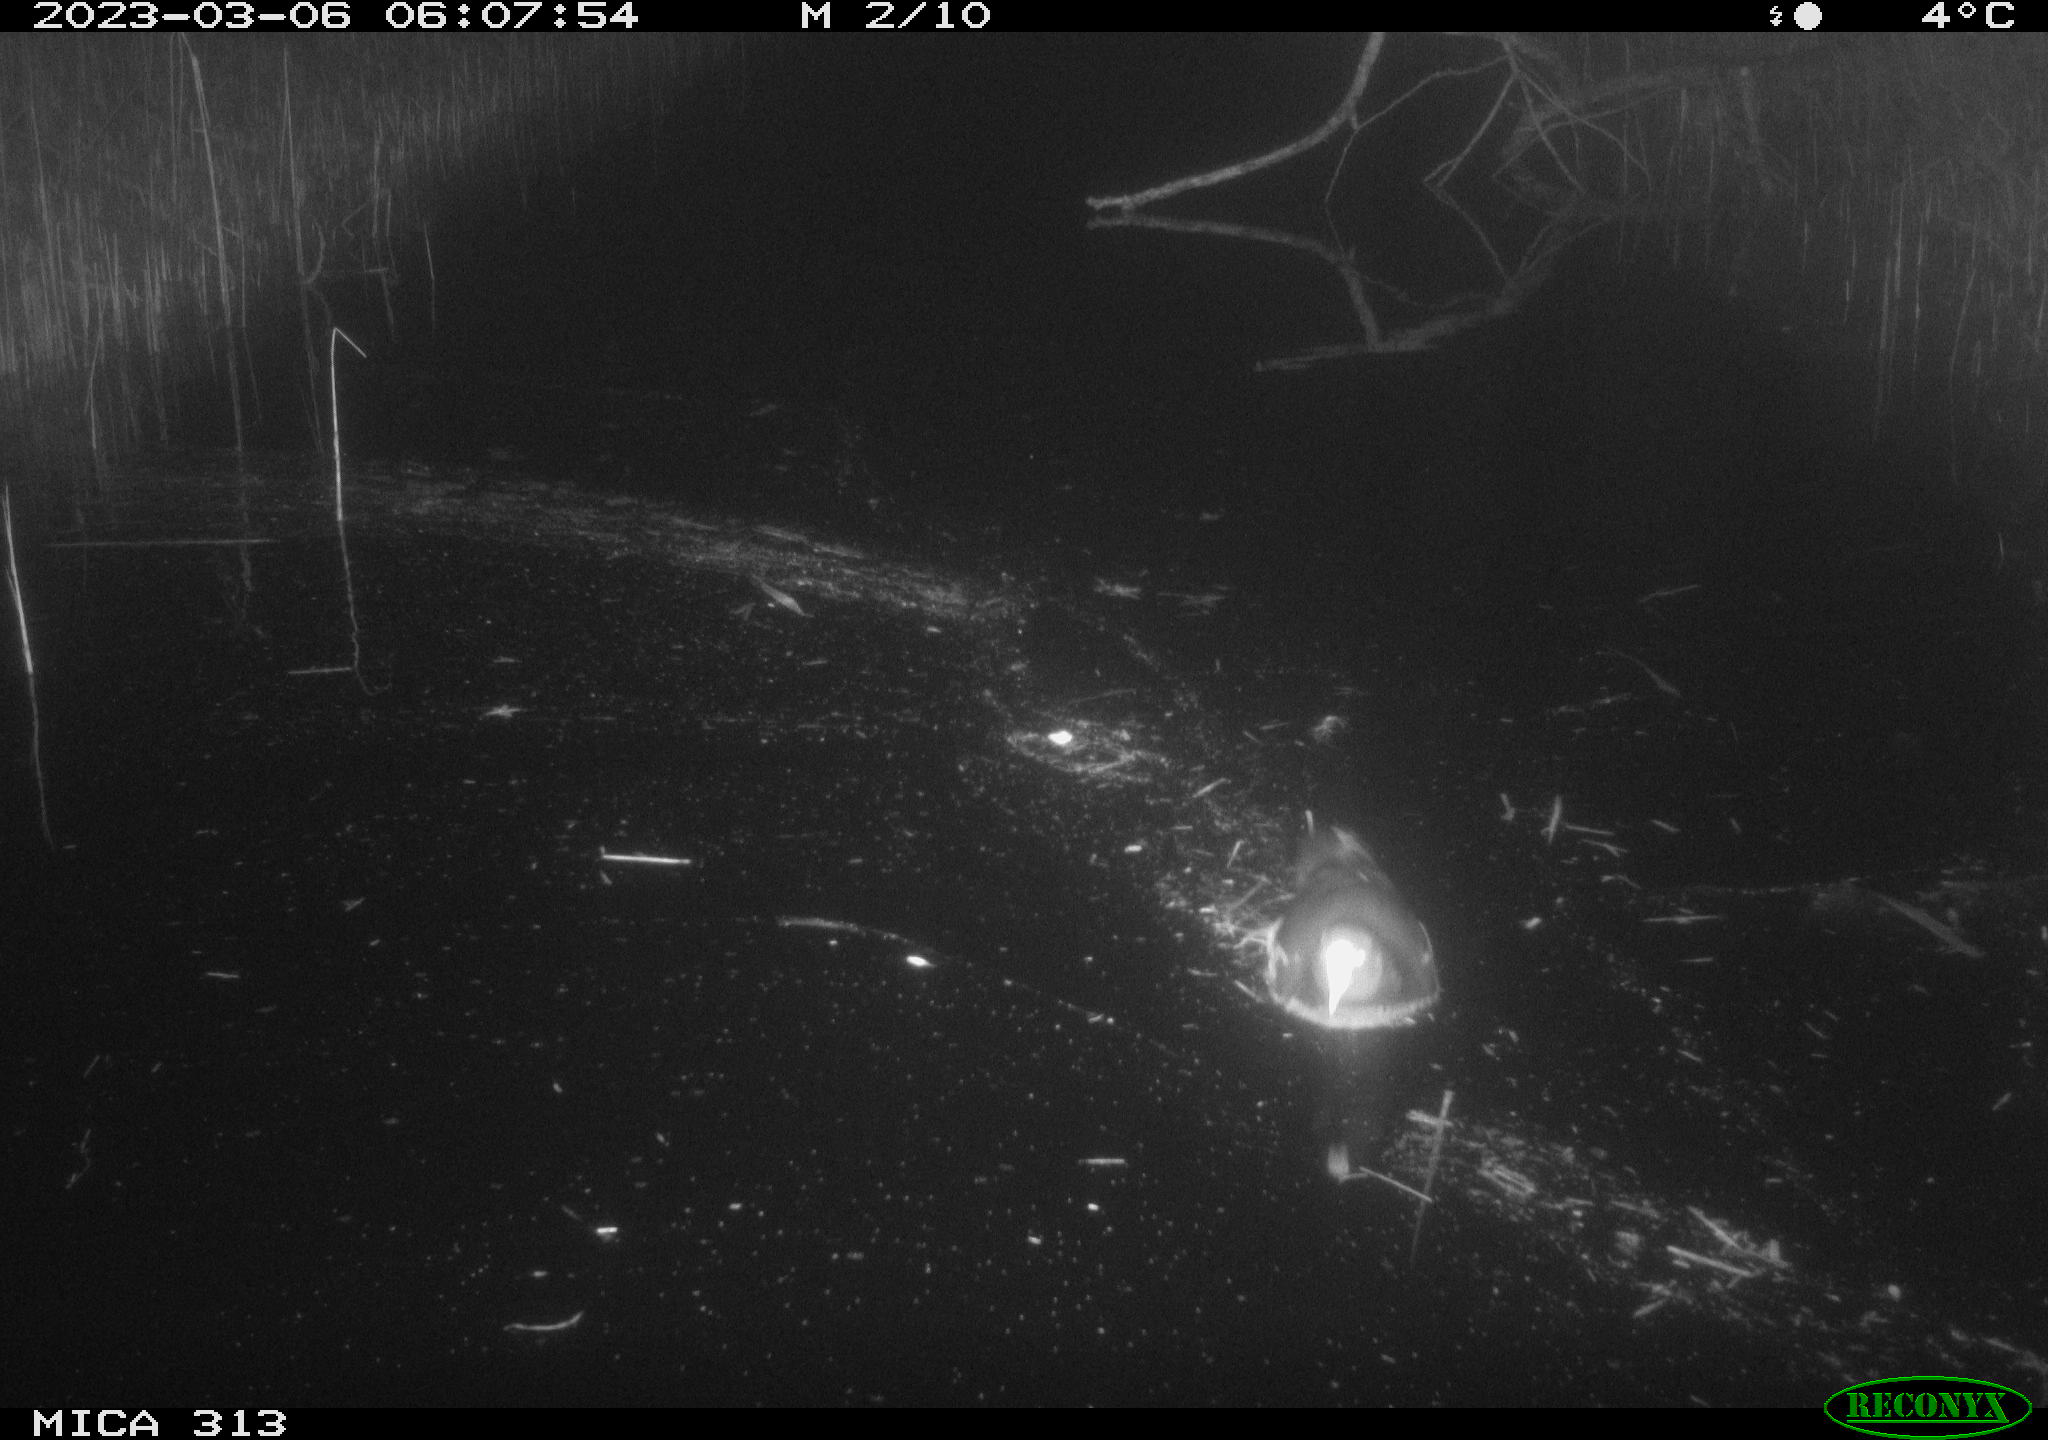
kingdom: Animalia
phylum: Chordata
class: Aves
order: Gruiformes
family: Rallidae
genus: Gallinula
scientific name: Gallinula chloropus
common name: Common moorhen
